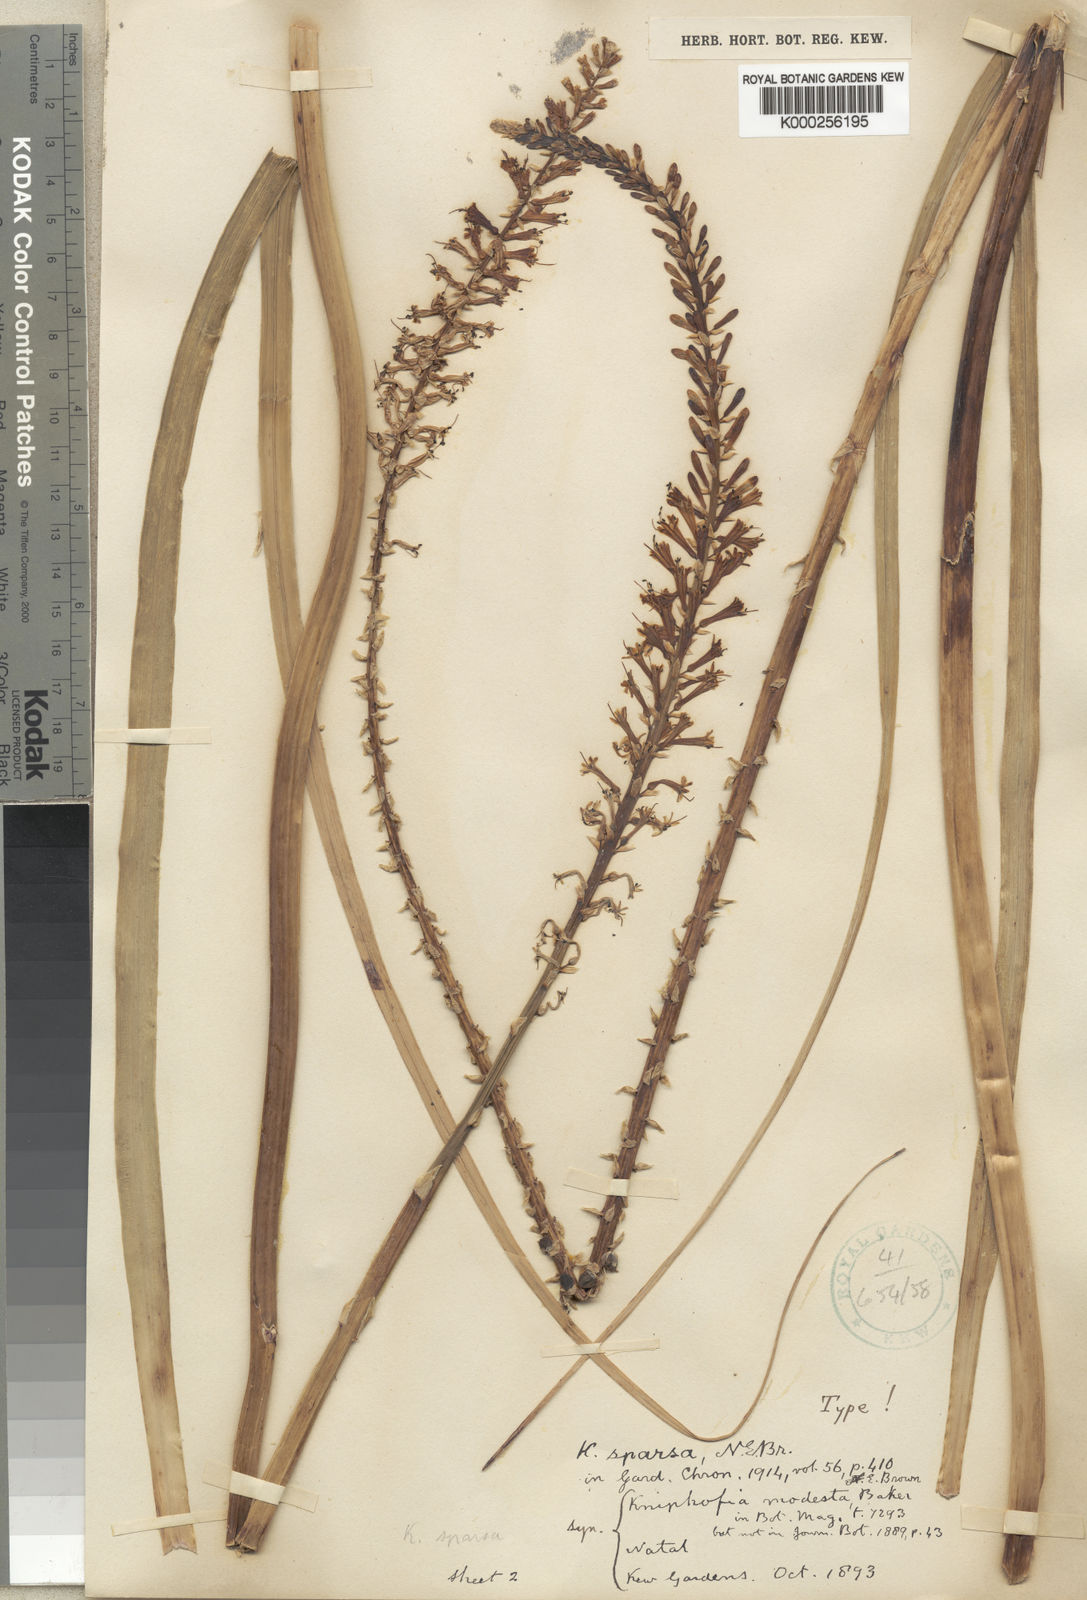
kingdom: Plantae
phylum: Tracheophyta
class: Liliopsida
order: Asparagales
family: Asphodelaceae
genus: Kniphofia
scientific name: Kniphofia gracilis
